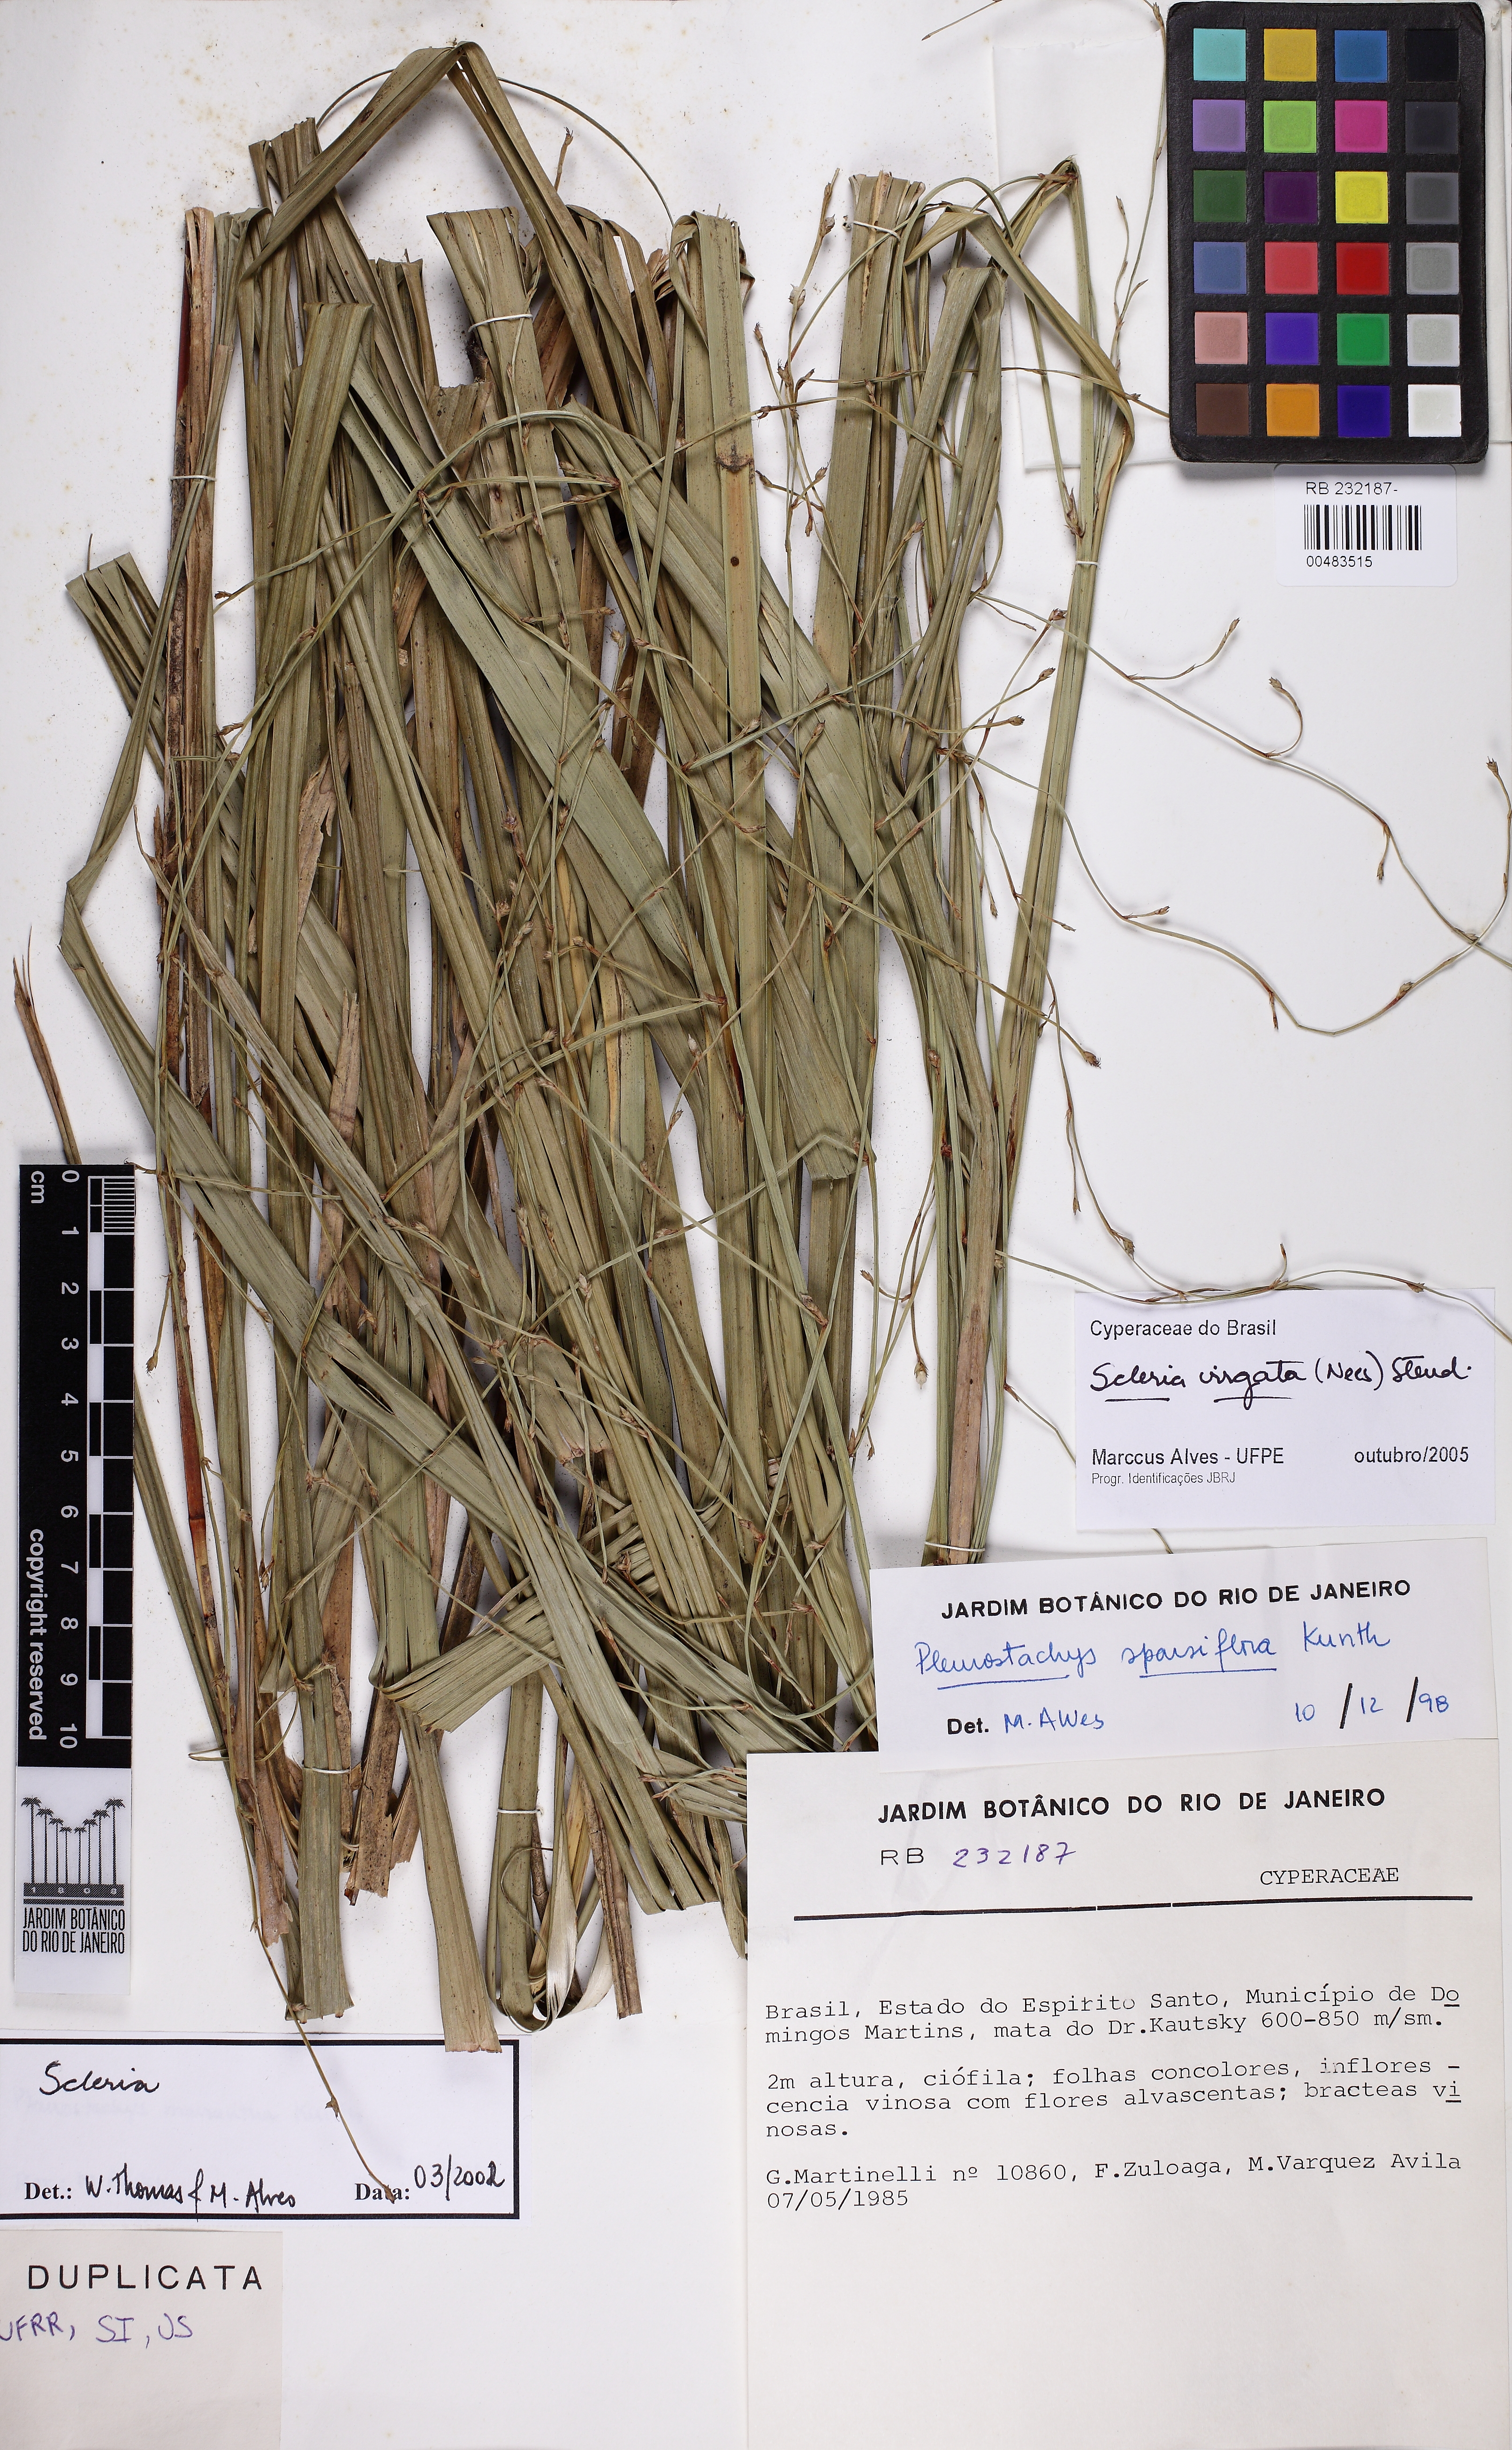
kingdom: Plantae
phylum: Tracheophyta
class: Liliopsida
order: Poales
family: Cyperaceae
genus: Scleria
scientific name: Scleria virgata
